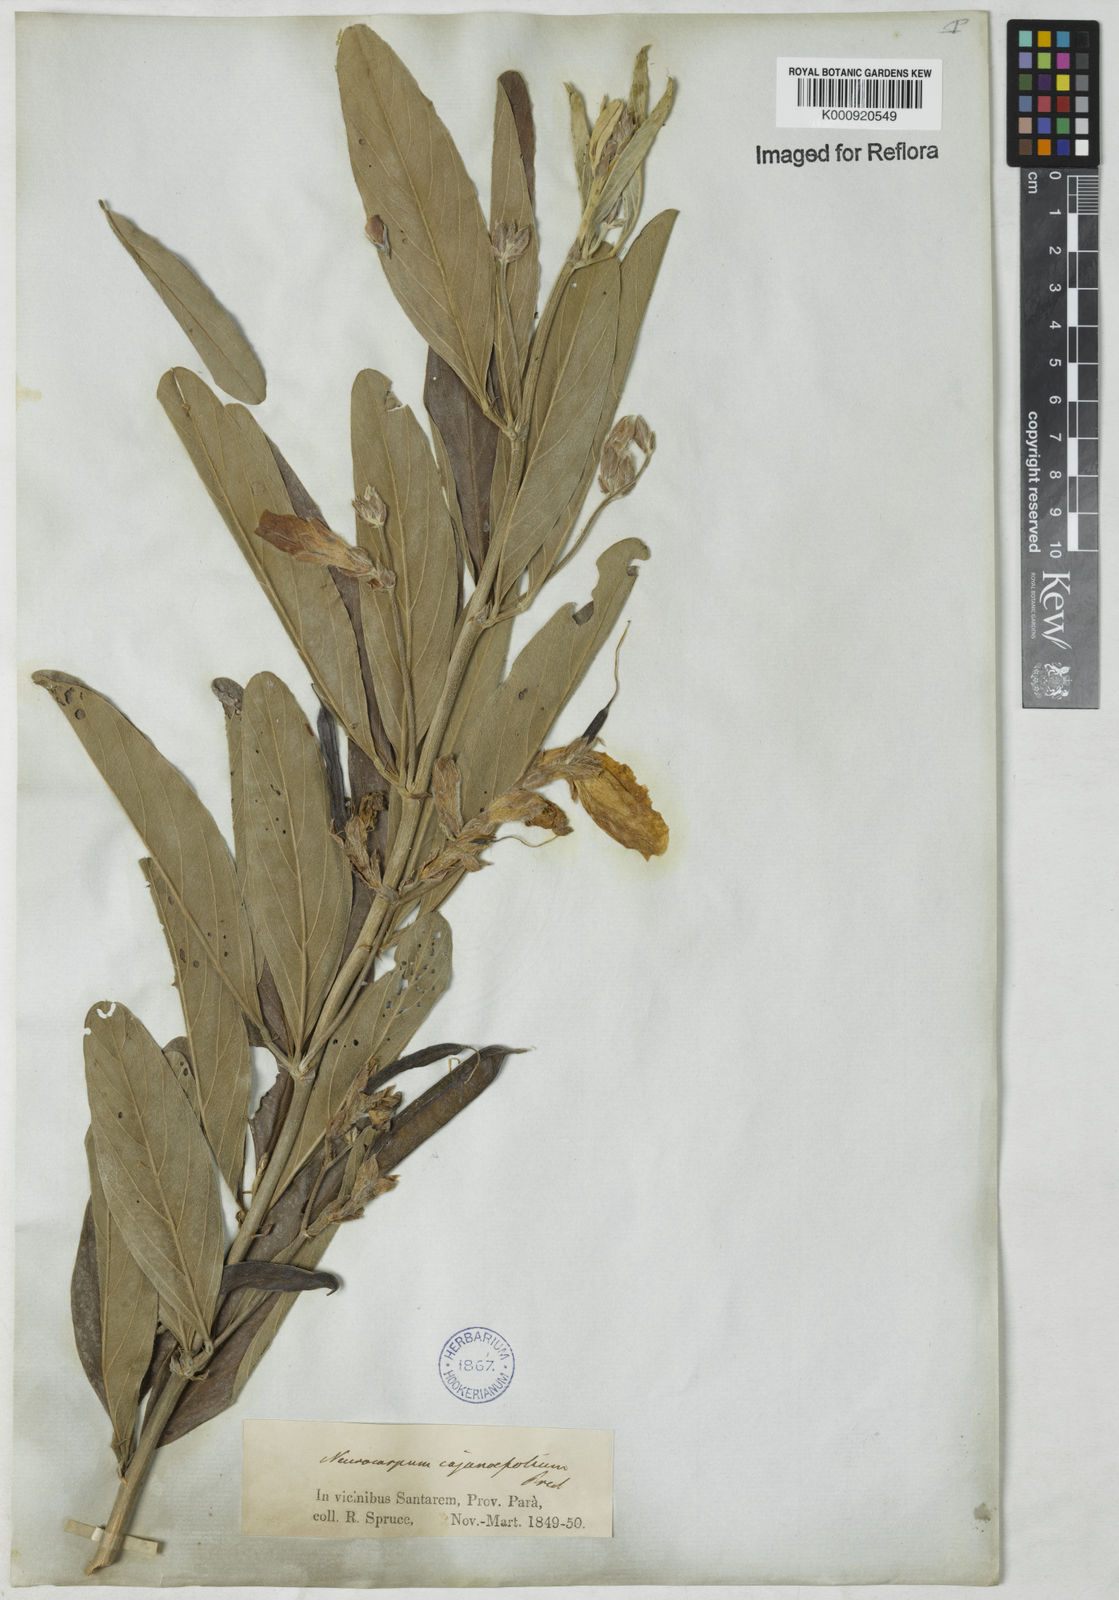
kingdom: Plantae
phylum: Tracheophyta
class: Magnoliopsida
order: Fabales
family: Fabaceae
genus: Clitoria
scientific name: Clitoria laurifolia
